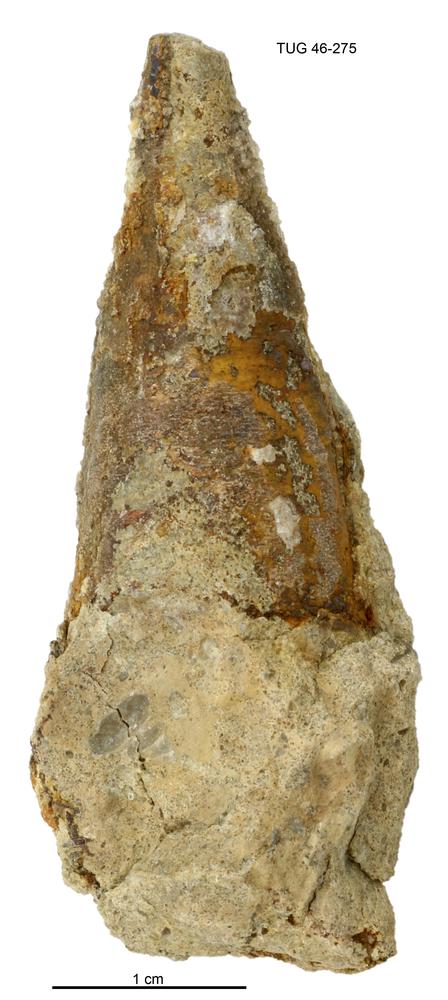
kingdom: Animalia
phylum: Annelida
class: Polychaeta
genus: Hyolithes
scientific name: Hyolithes
